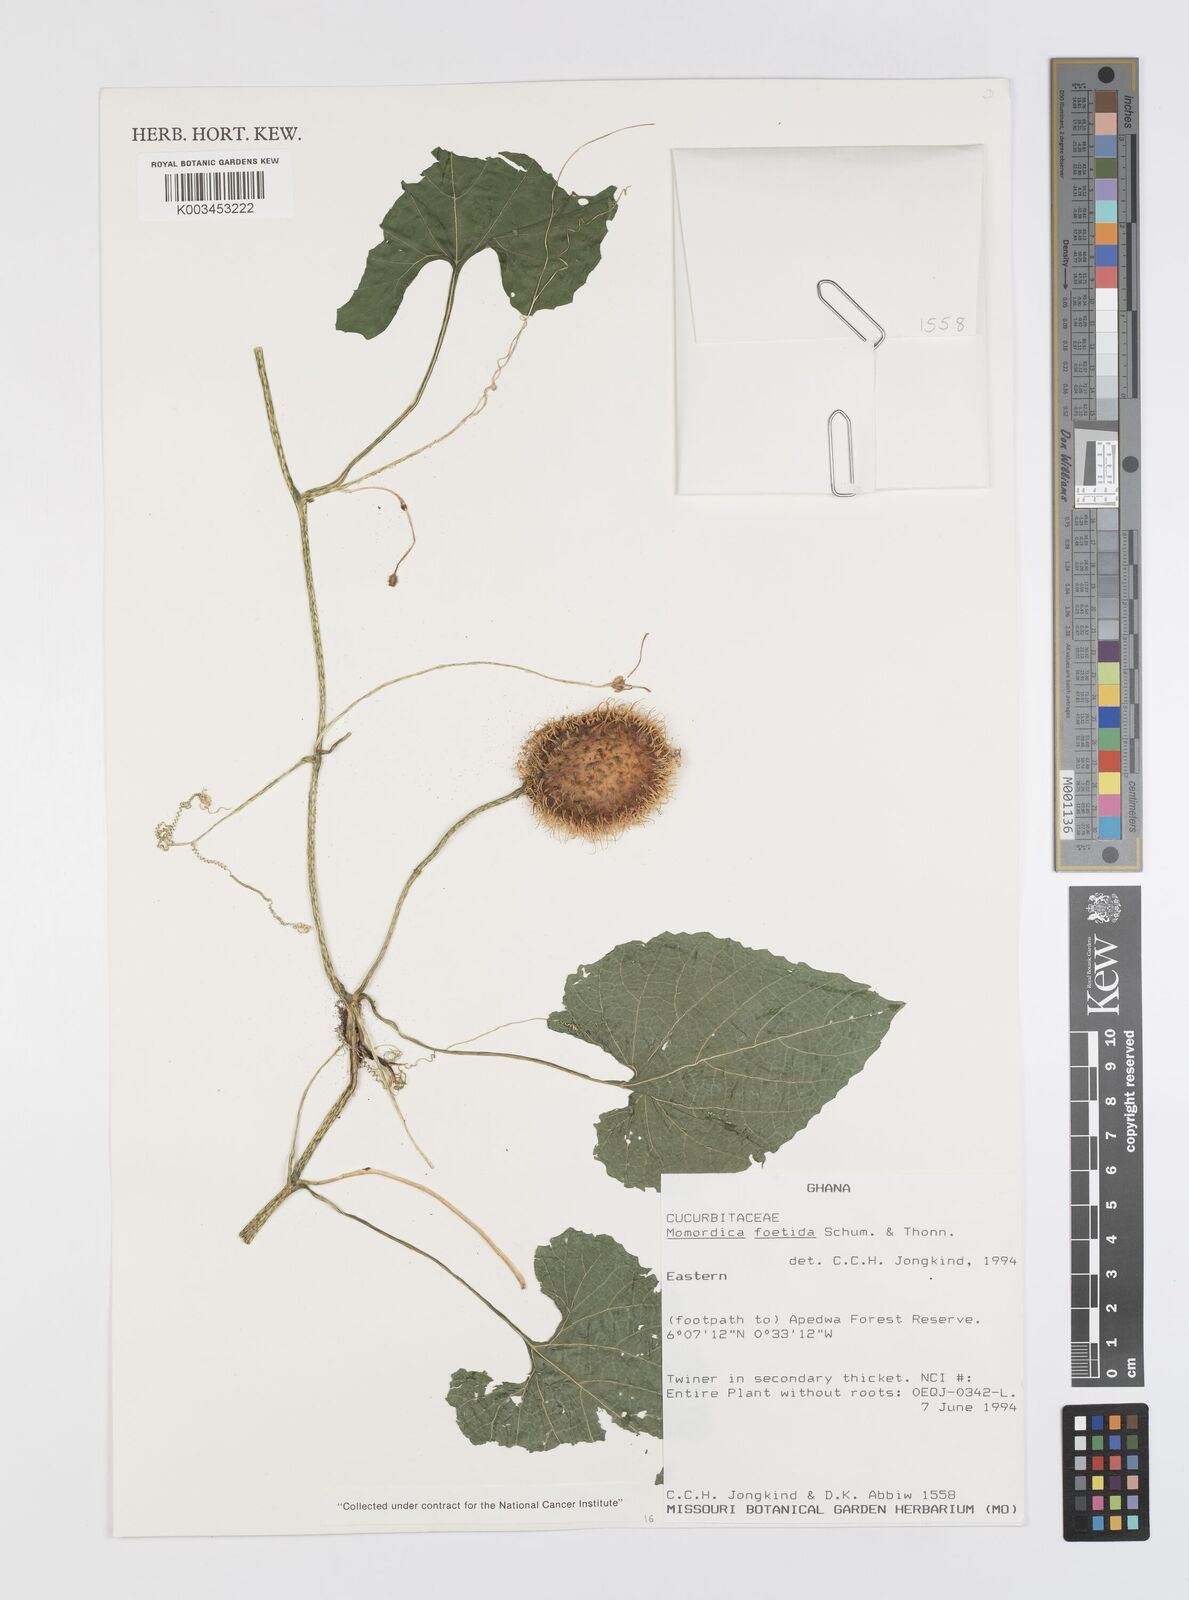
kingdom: Plantae
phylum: Tracheophyta
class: Magnoliopsida
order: Cucurbitales
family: Cucurbitaceae
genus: Momordica
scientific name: Momordica foetida
